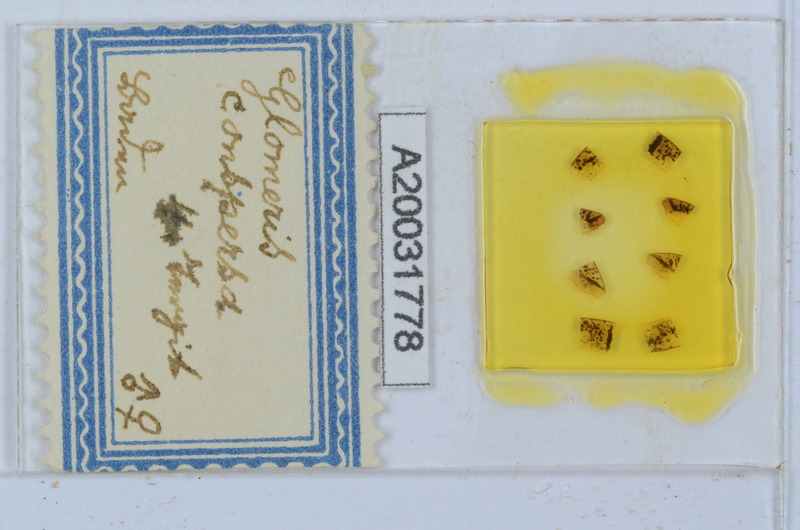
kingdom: Animalia
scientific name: Animalia
